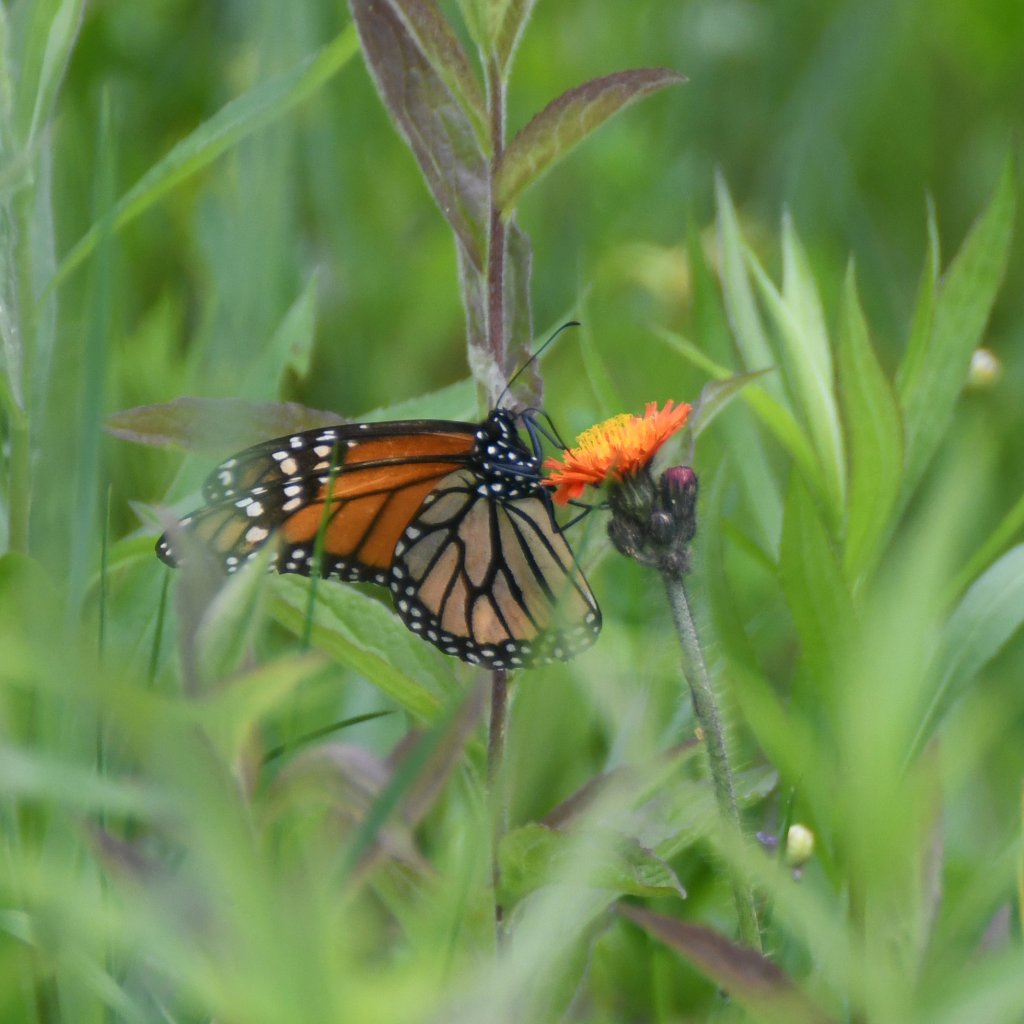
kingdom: Animalia
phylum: Arthropoda
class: Insecta
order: Lepidoptera
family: Nymphalidae
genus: Danaus
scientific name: Danaus plexippus
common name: Monarch
